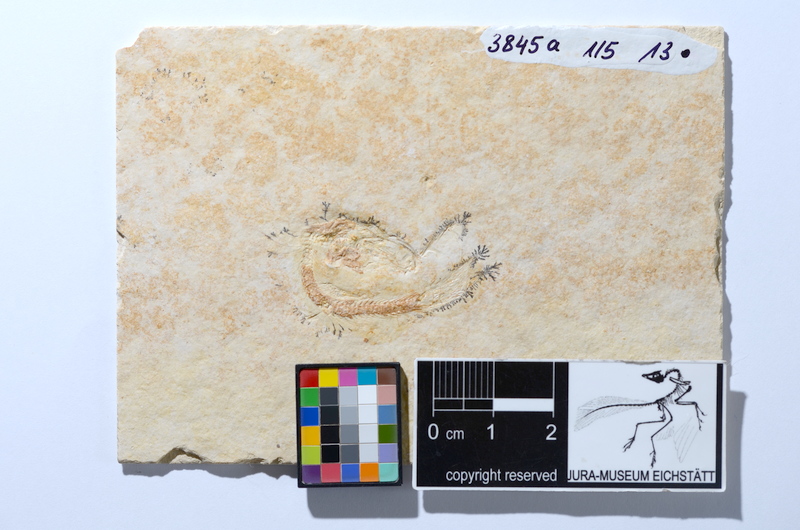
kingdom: Animalia
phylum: Chordata
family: Ascalaboidae
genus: Tharsis
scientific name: Tharsis dubius
